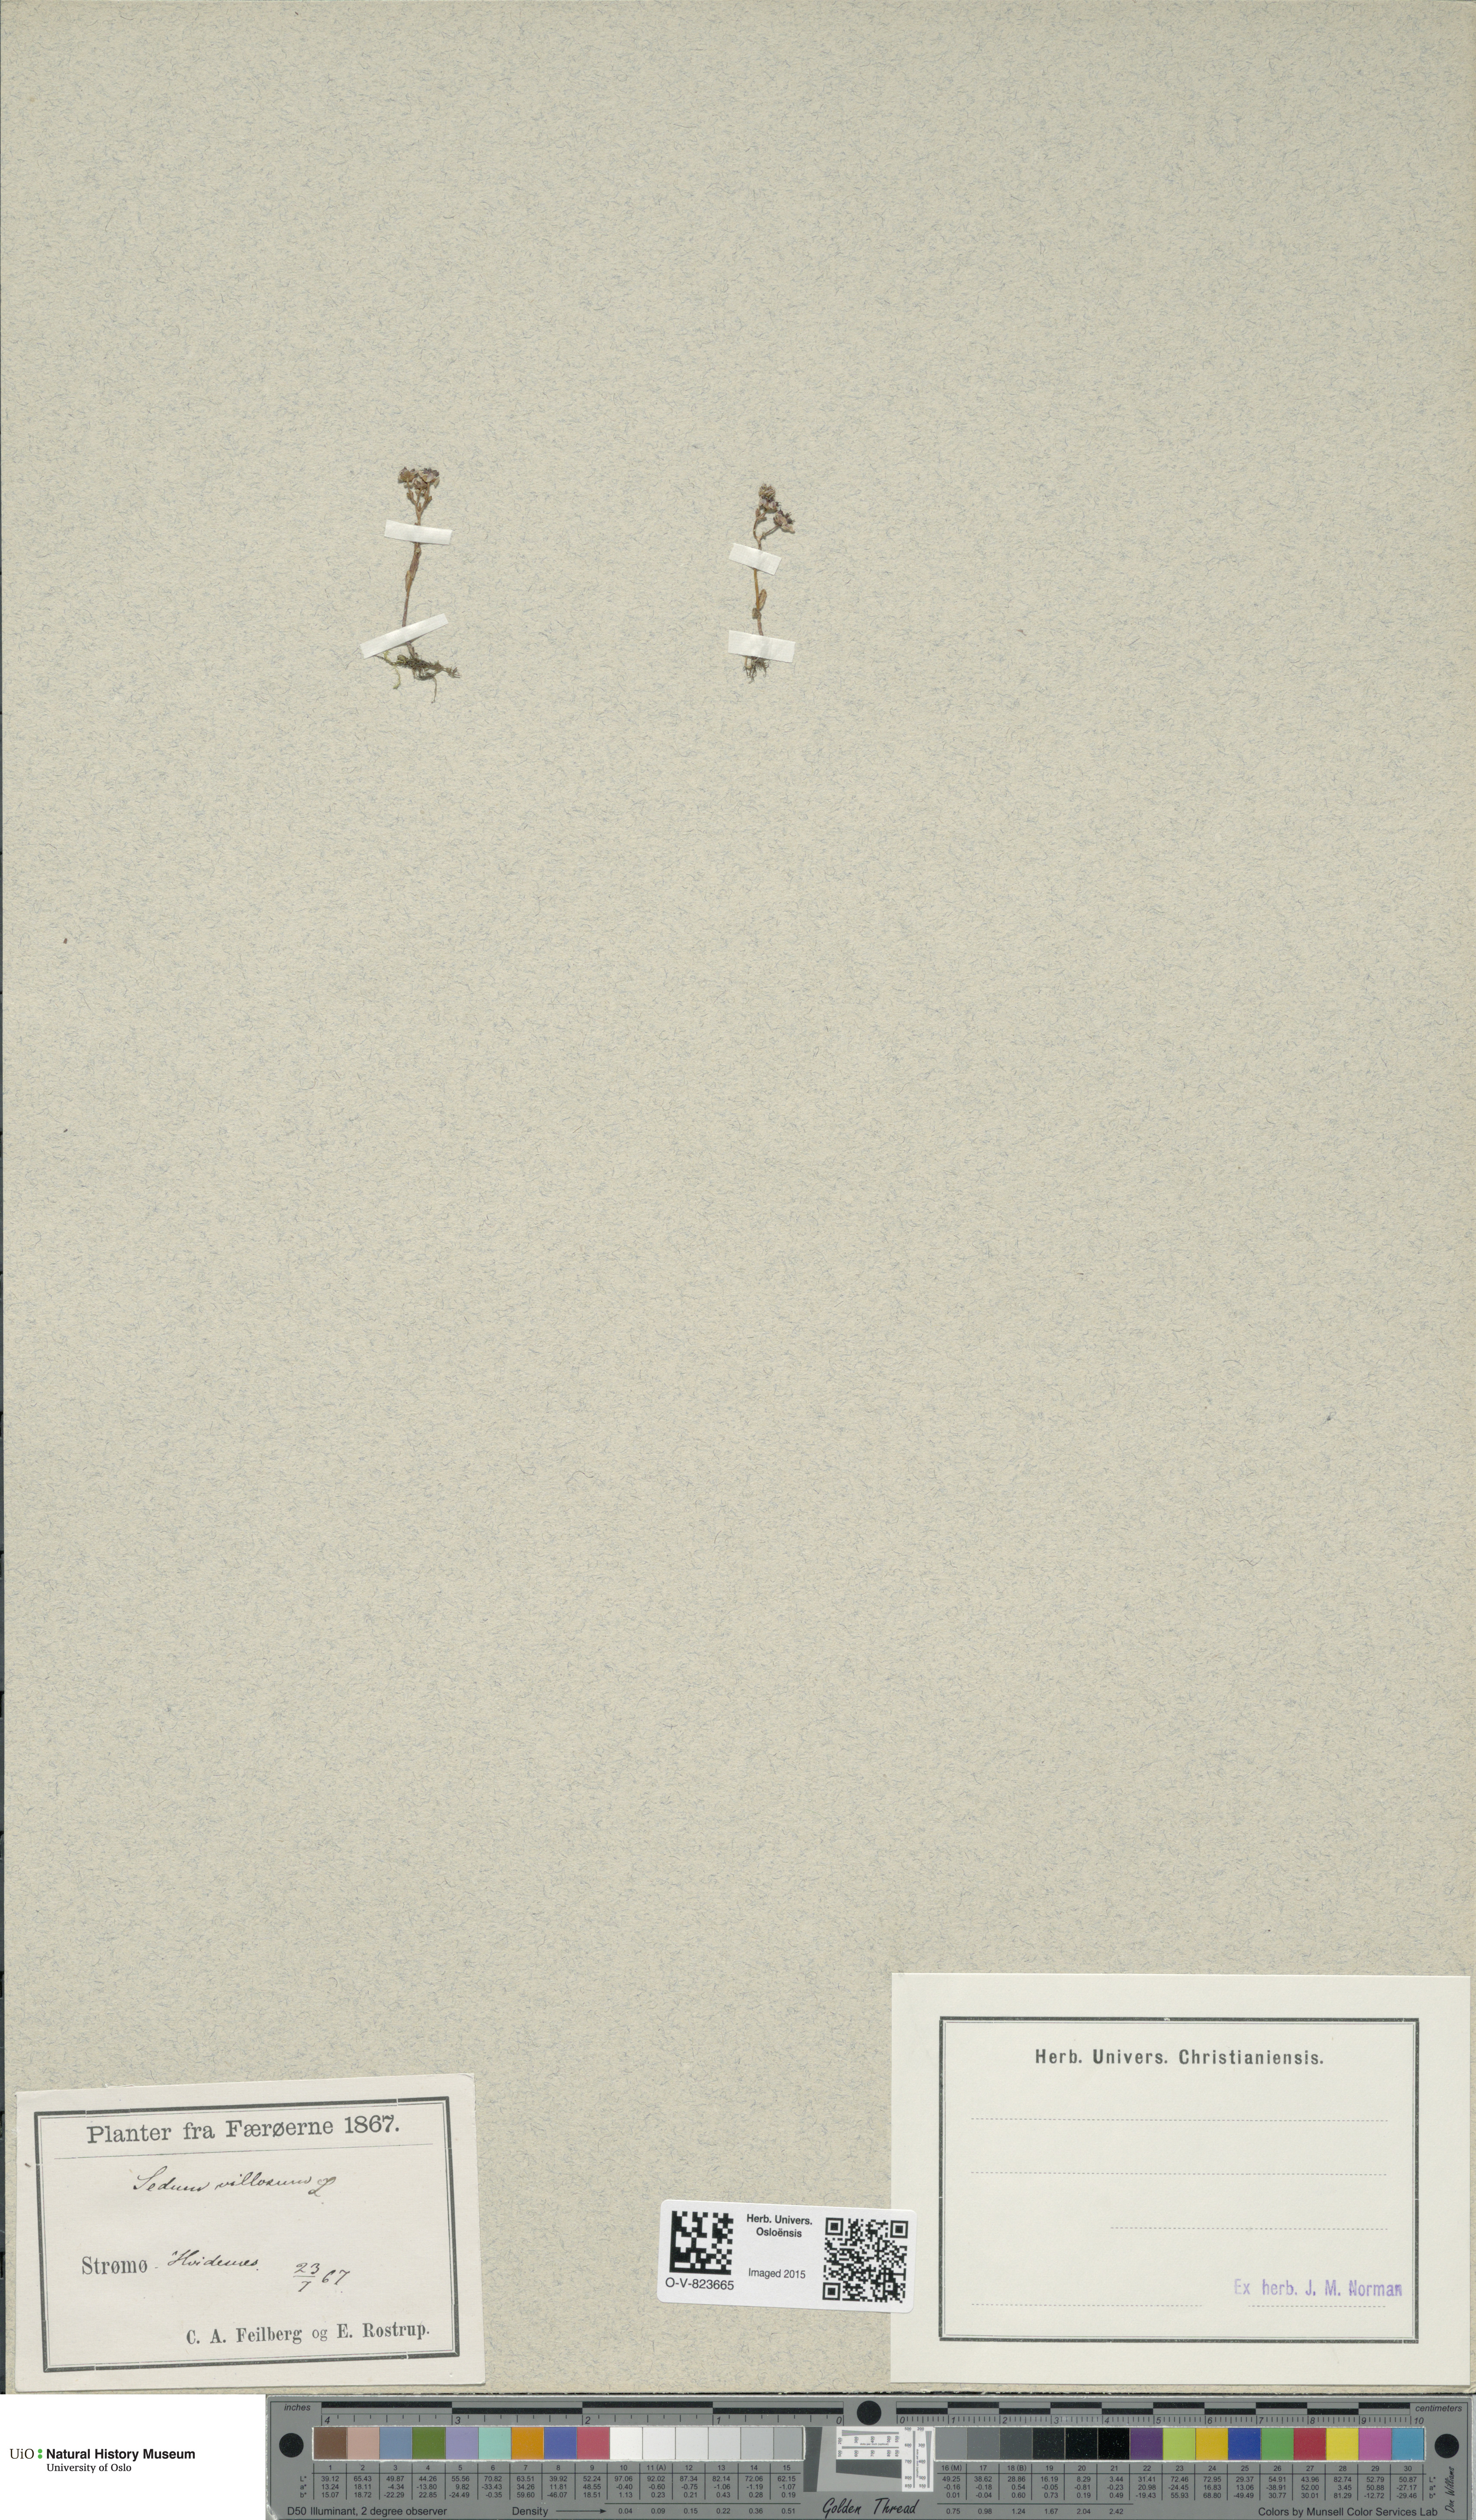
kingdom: Plantae
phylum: Tracheophyta
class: Magnoliopsida
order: Saxifragales
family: Crassulaceae
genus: Sedum
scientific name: Sedum villosum
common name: Hairy stonecrop
